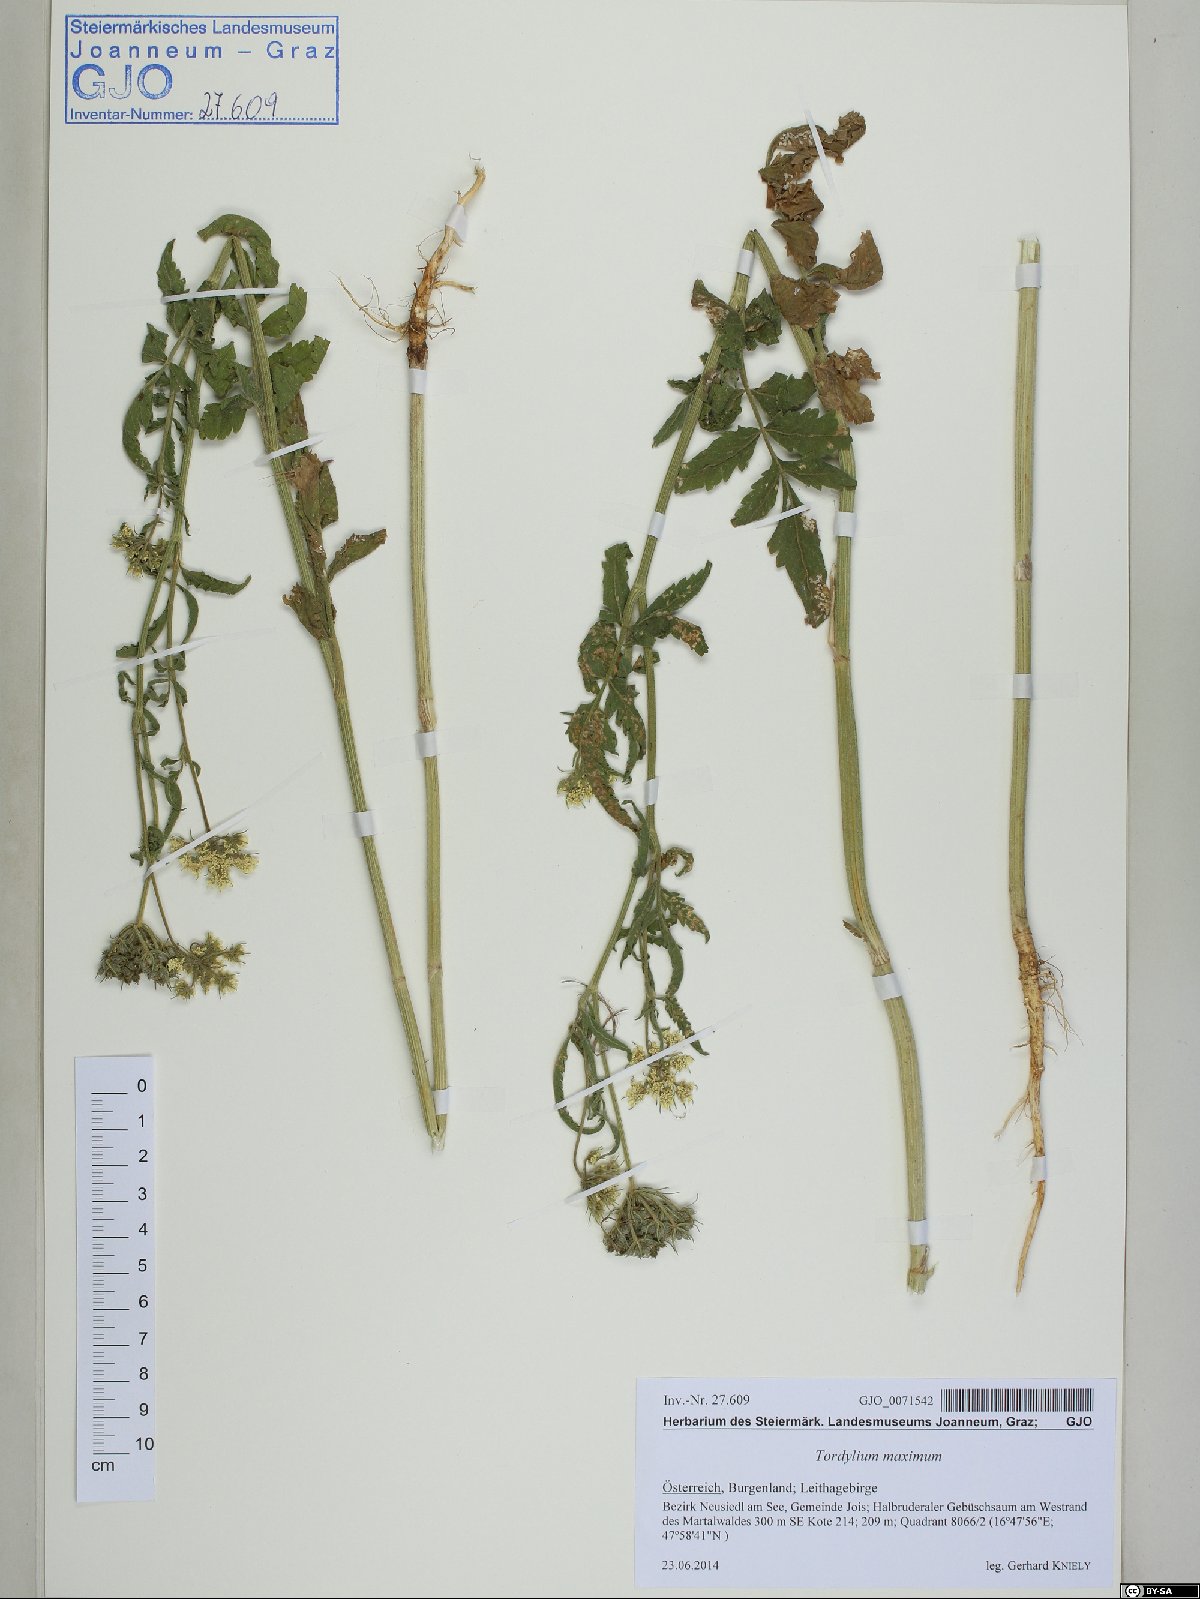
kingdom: Plantae
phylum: Tracheophyta
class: Magnoliopsida
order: Apiales
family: Apiaceae
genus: Tordylium
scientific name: Tordylium maximum
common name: Hartwort
